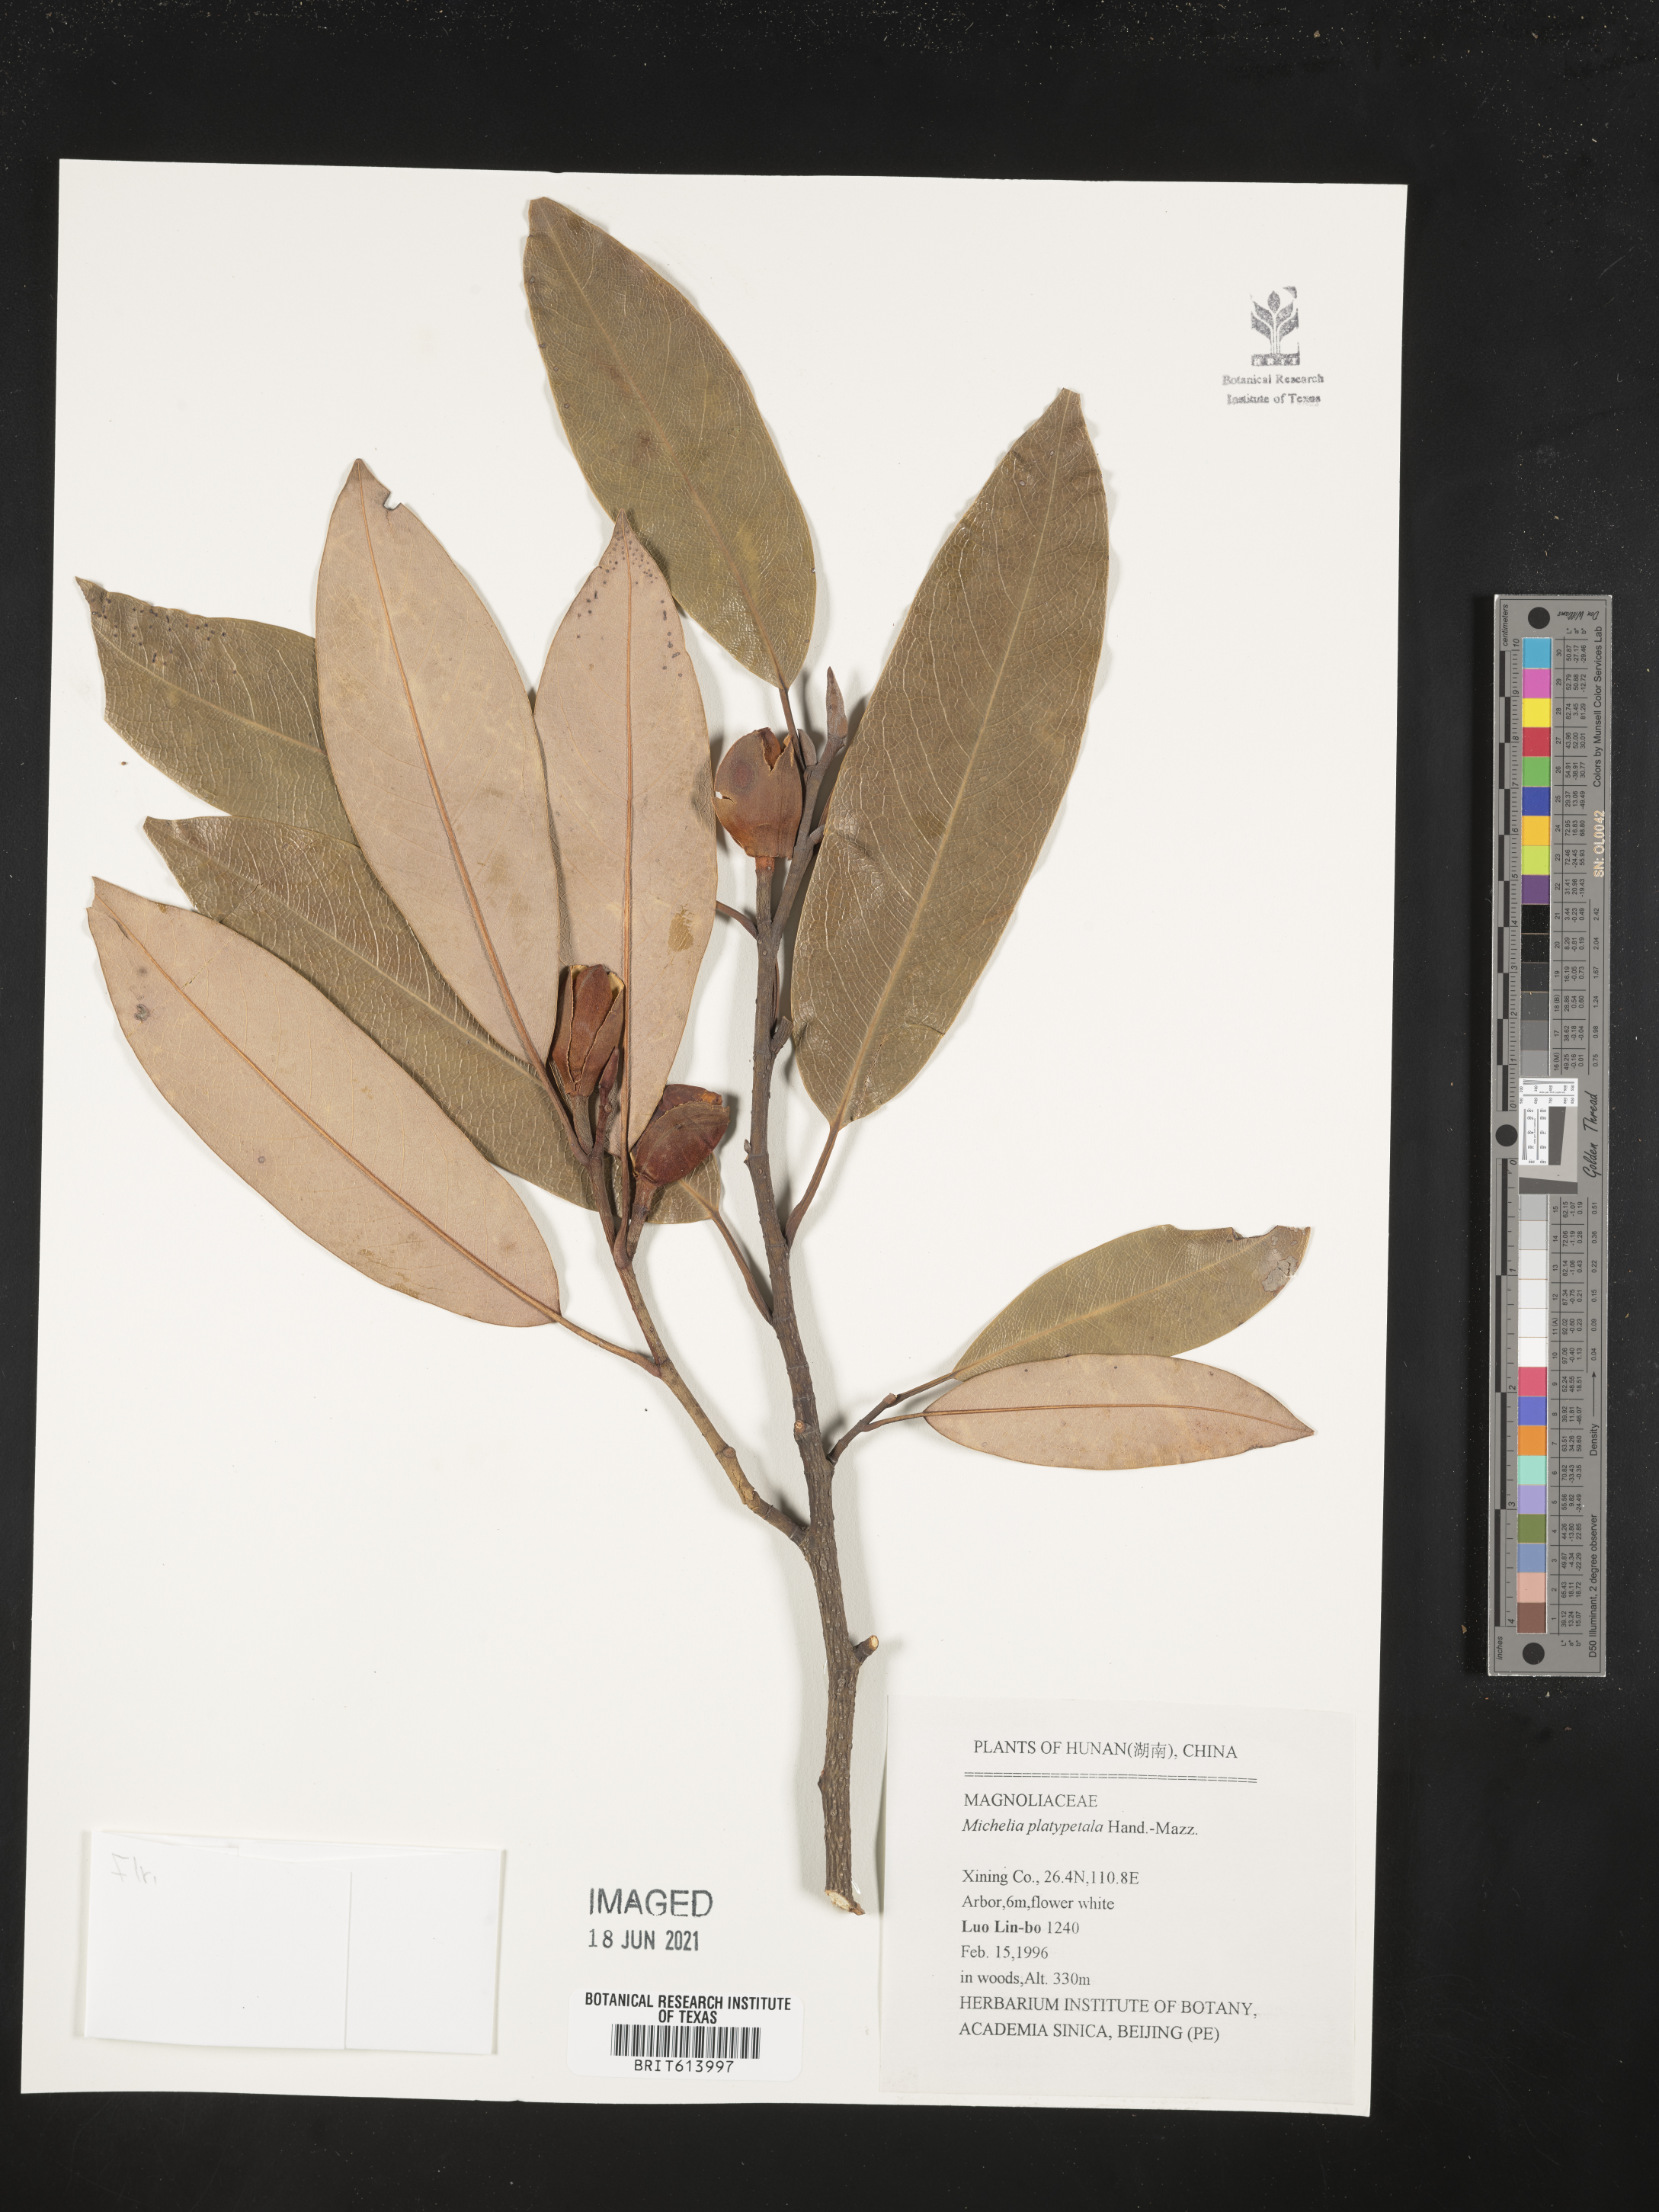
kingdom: Plantae
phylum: Tracheophyta
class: Magnoliopsida
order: Magnoliales
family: Magnoliaceae
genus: Magnolia
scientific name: Magnolia maudiae
